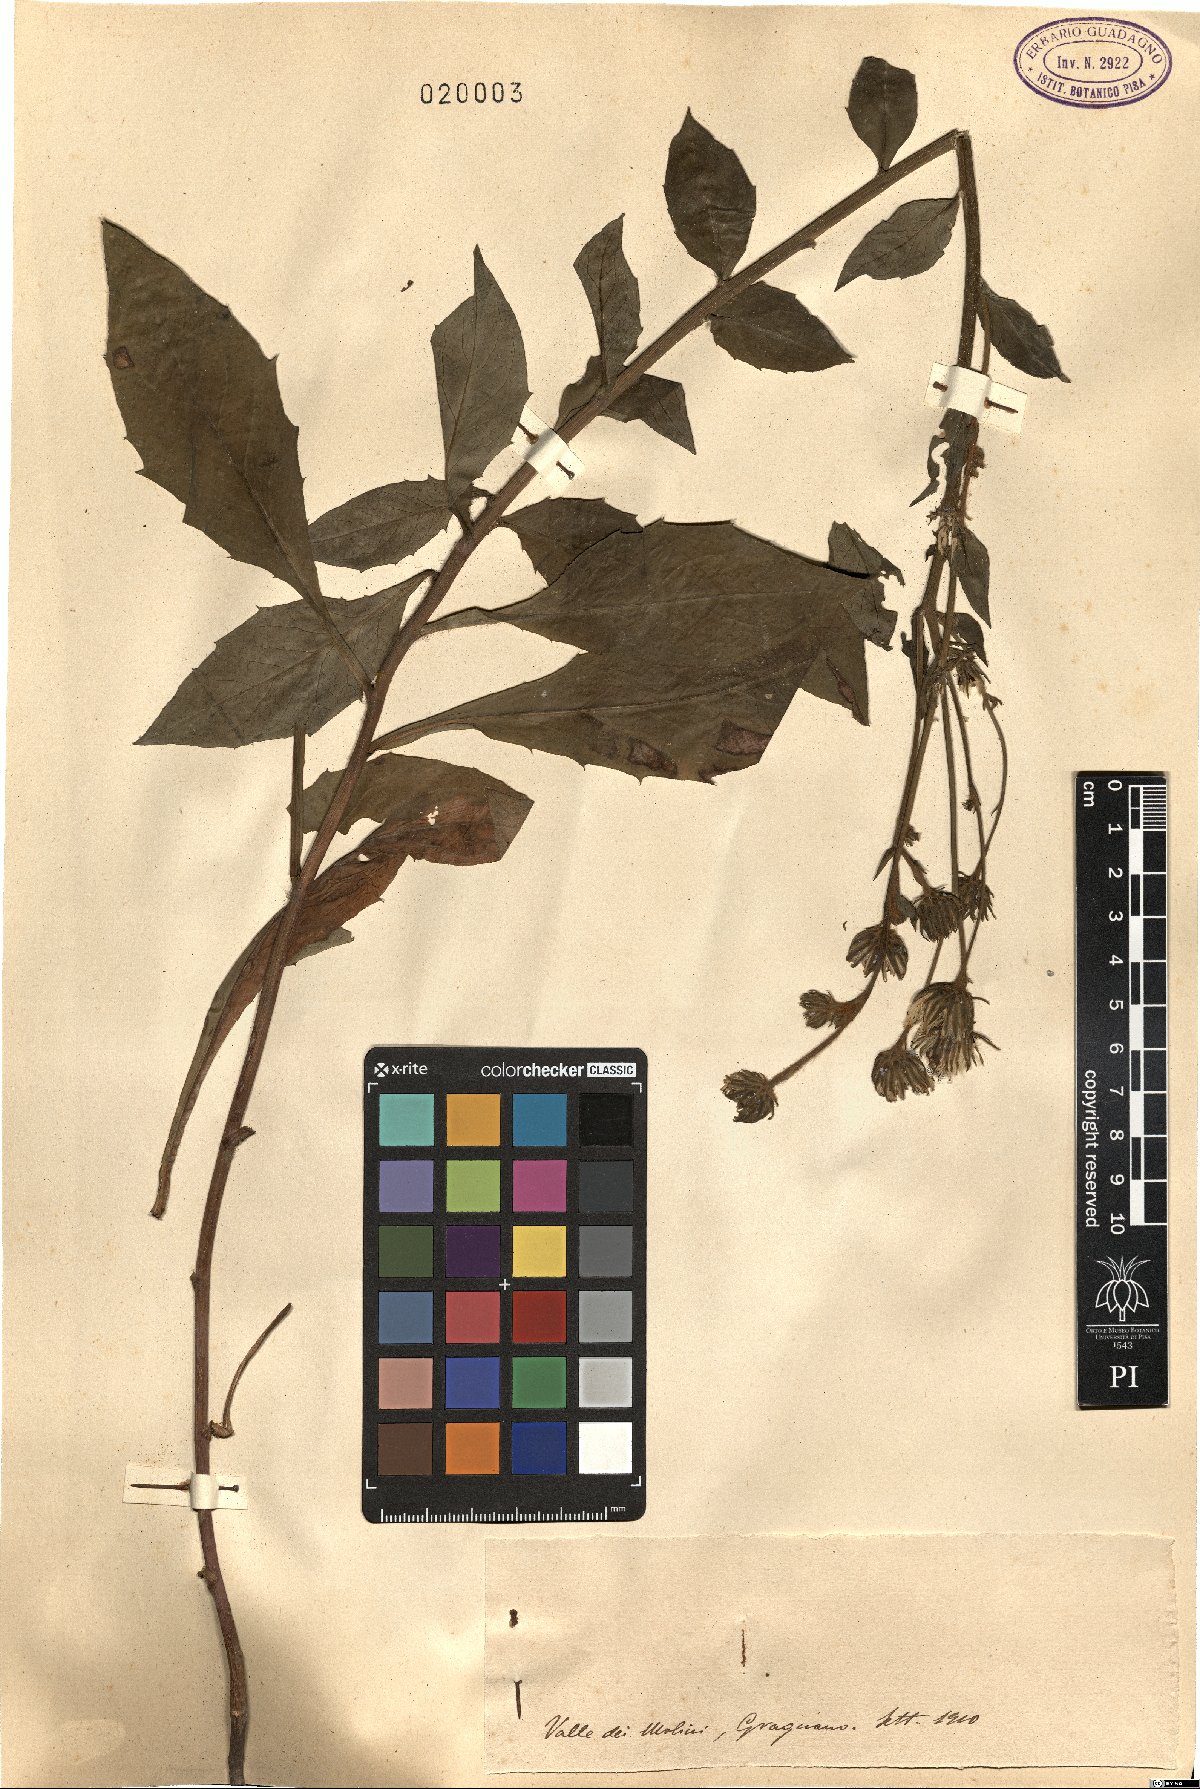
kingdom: Plantae
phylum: Tracheophyta
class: Magnoliopsida
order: Asterales
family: Asteraceae
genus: Hieracium
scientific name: Hieracium
